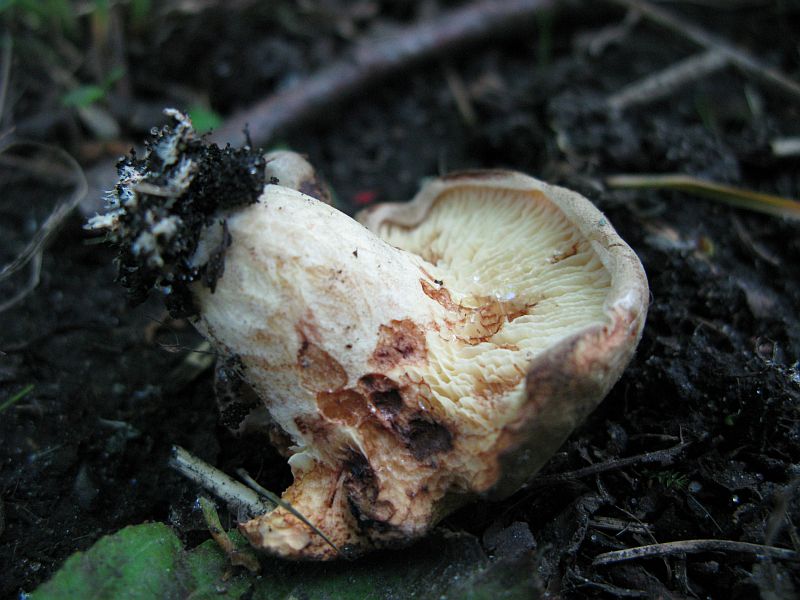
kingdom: Fungi
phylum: Basidiomycota
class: Agaricomycetes
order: Boletales
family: Paxillaceae
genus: Paxillus
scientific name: Paxillus rubicundulus
